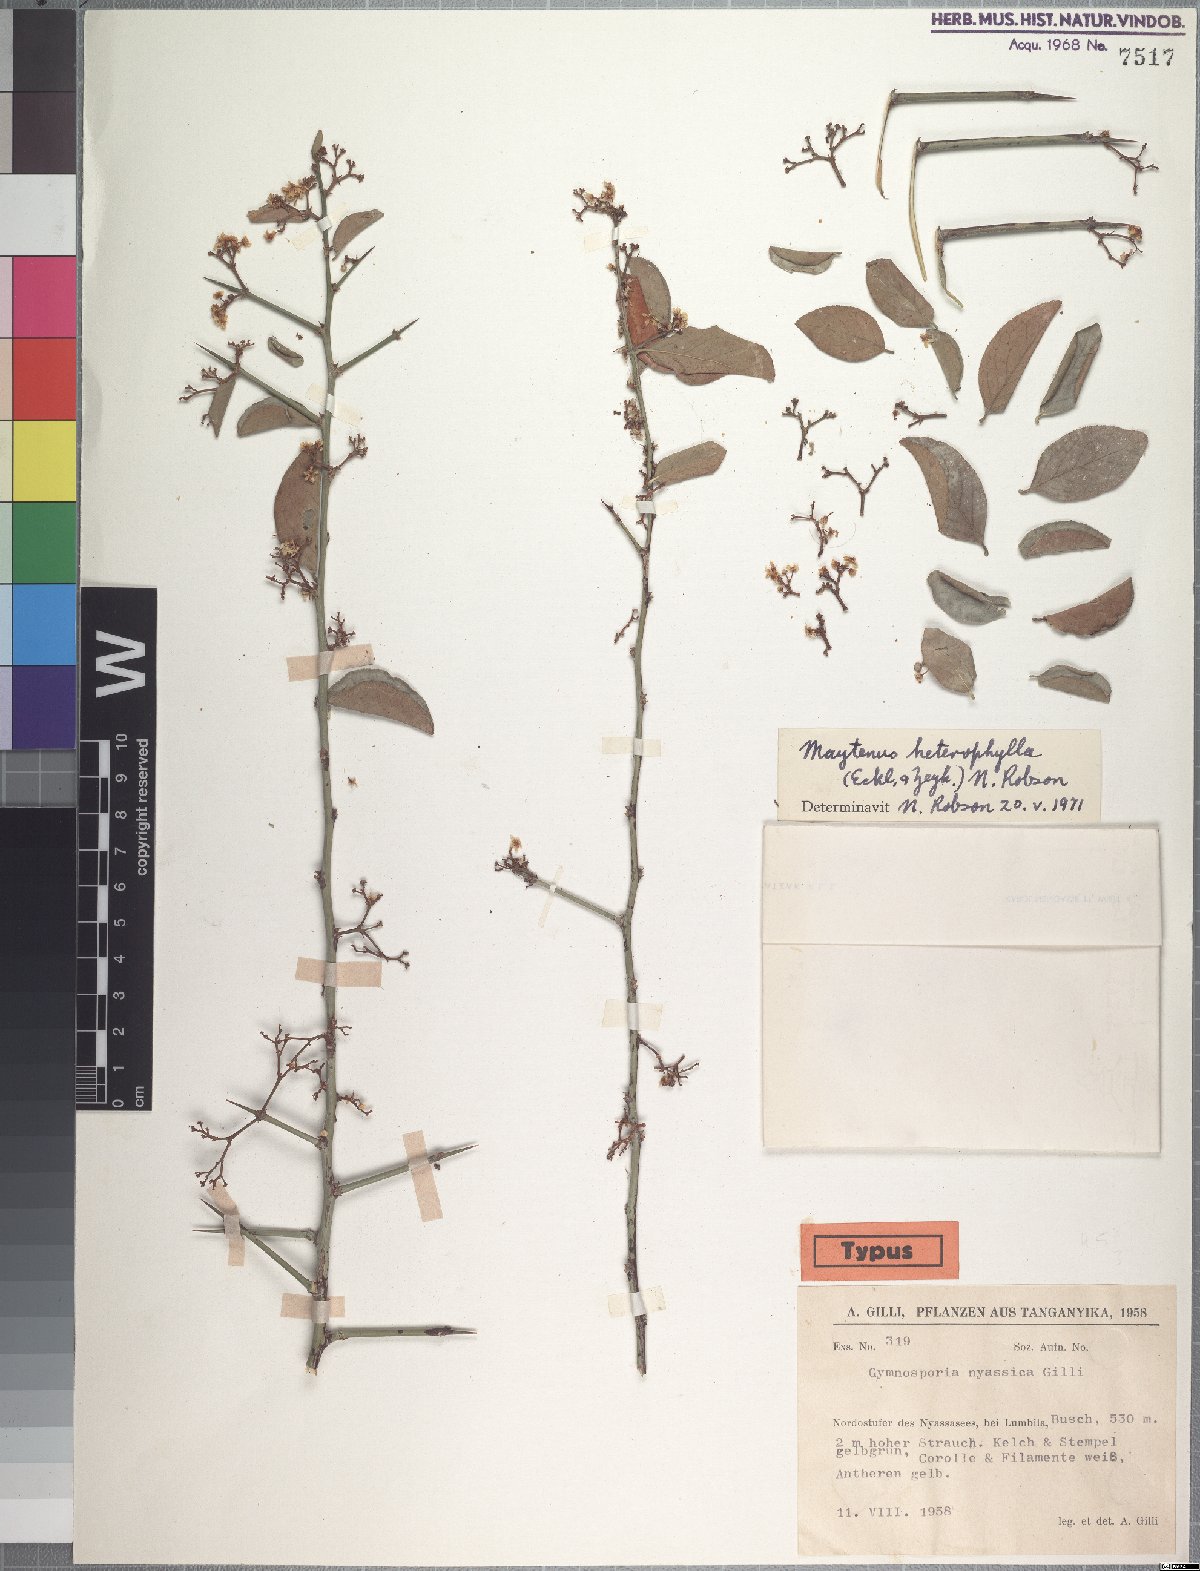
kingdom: Plantae
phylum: Tracheophyta
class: Magnoliopsida
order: Celastrales
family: Celastraceae
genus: Gymnosporia
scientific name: Gymnosporia heterophylla
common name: Angle-stem spikethorn
